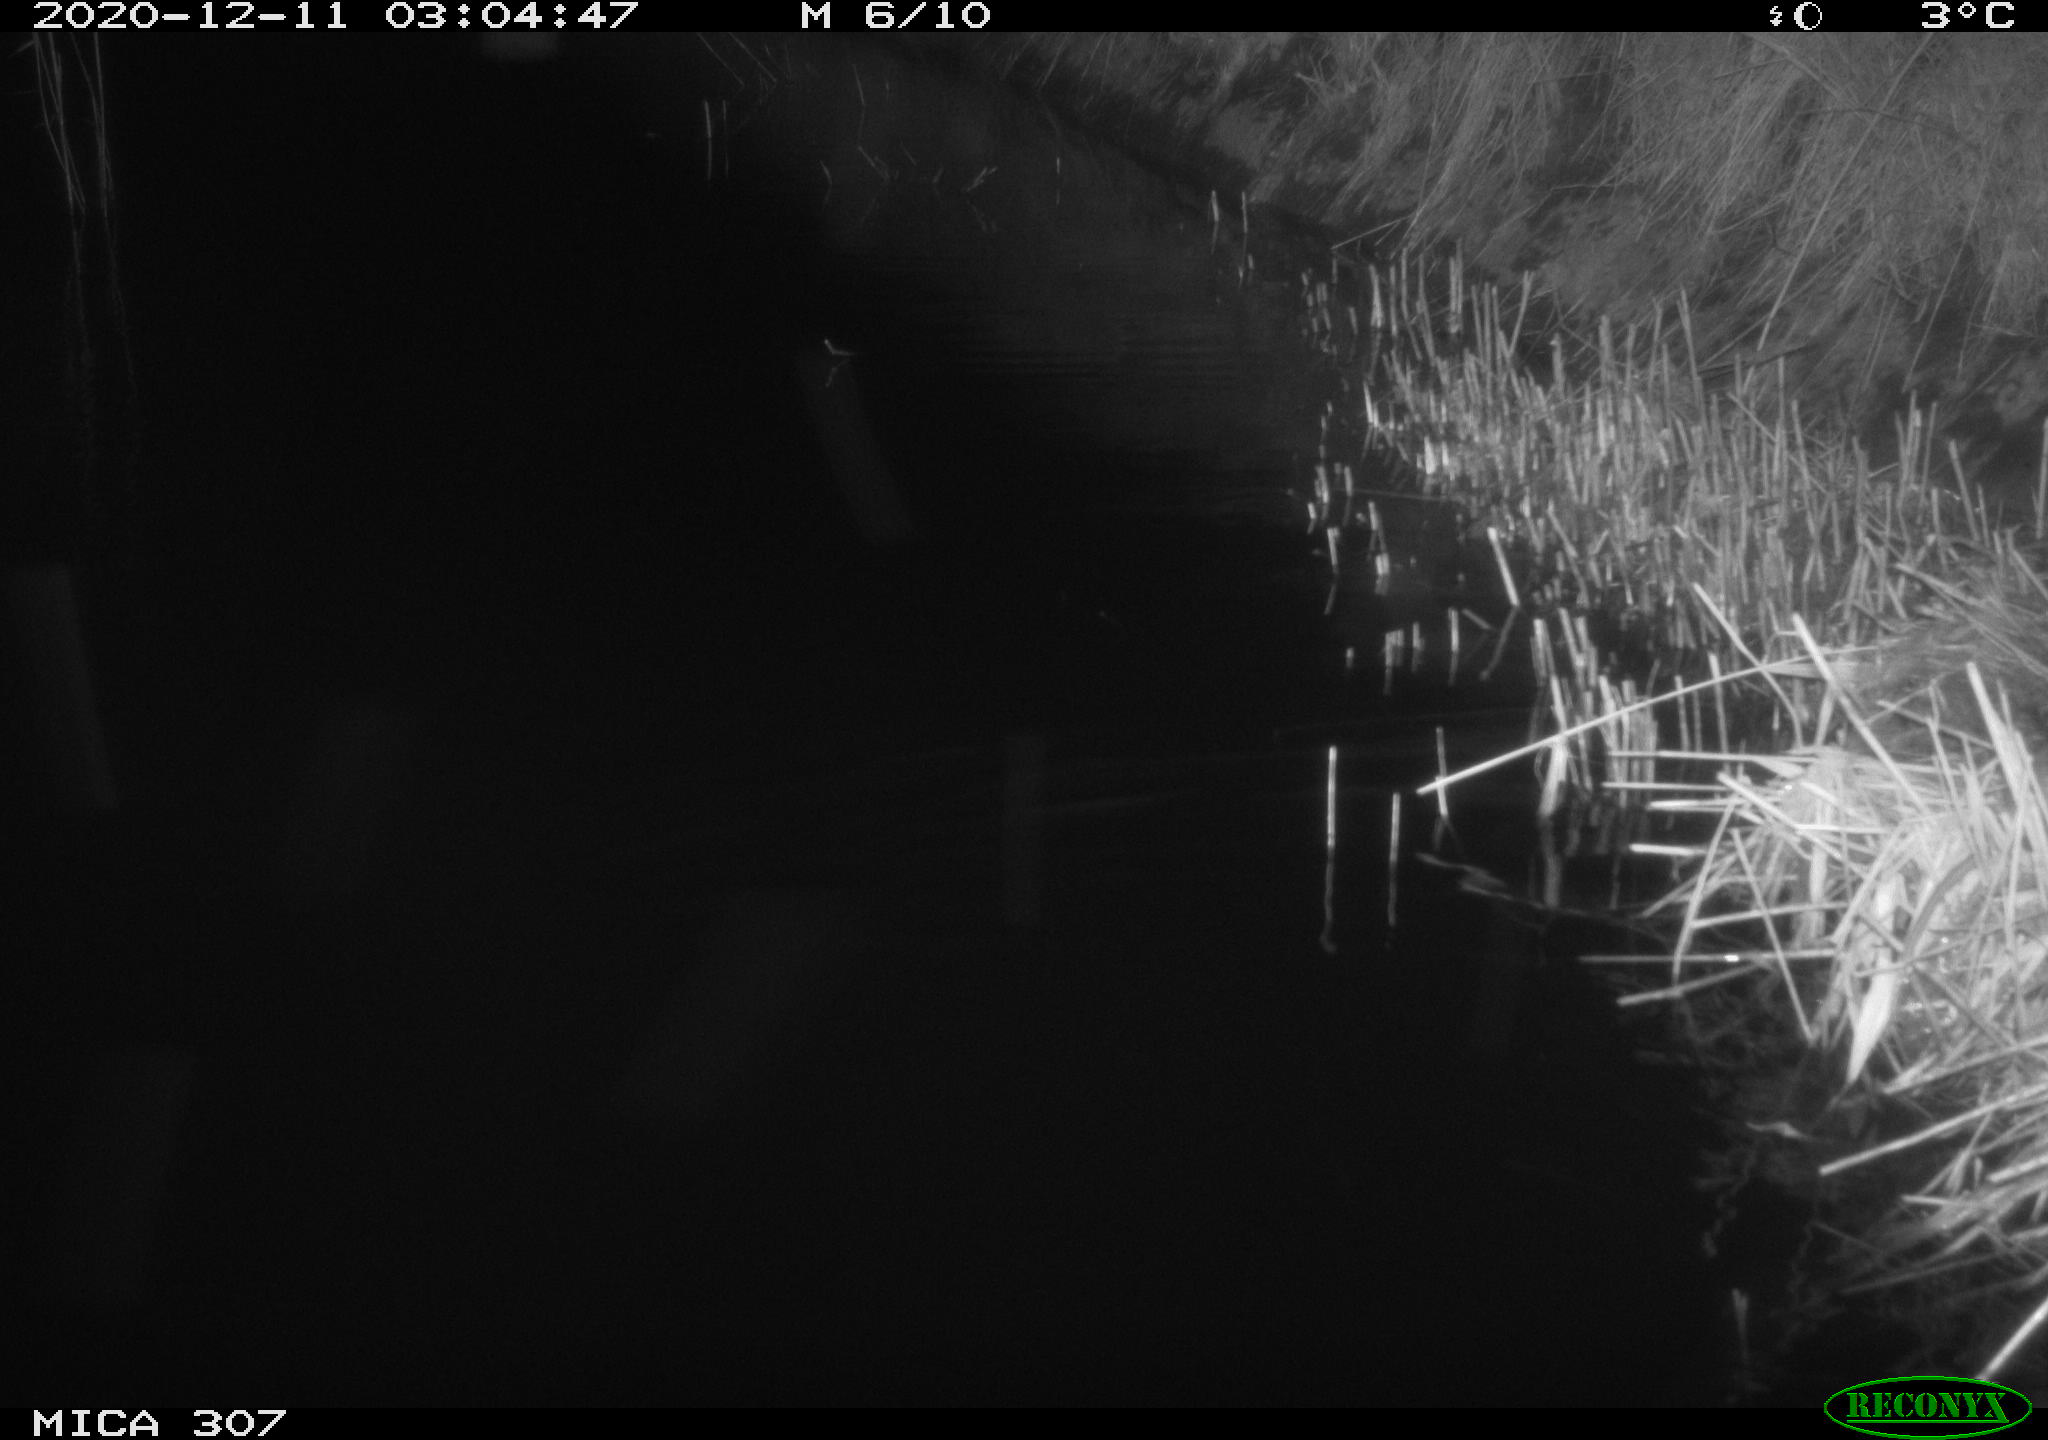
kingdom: Animalia
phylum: Chordata
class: Mammalia
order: Rodentia
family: Muridae
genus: Rattus
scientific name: Rattus norvegicus
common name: Brown rat
